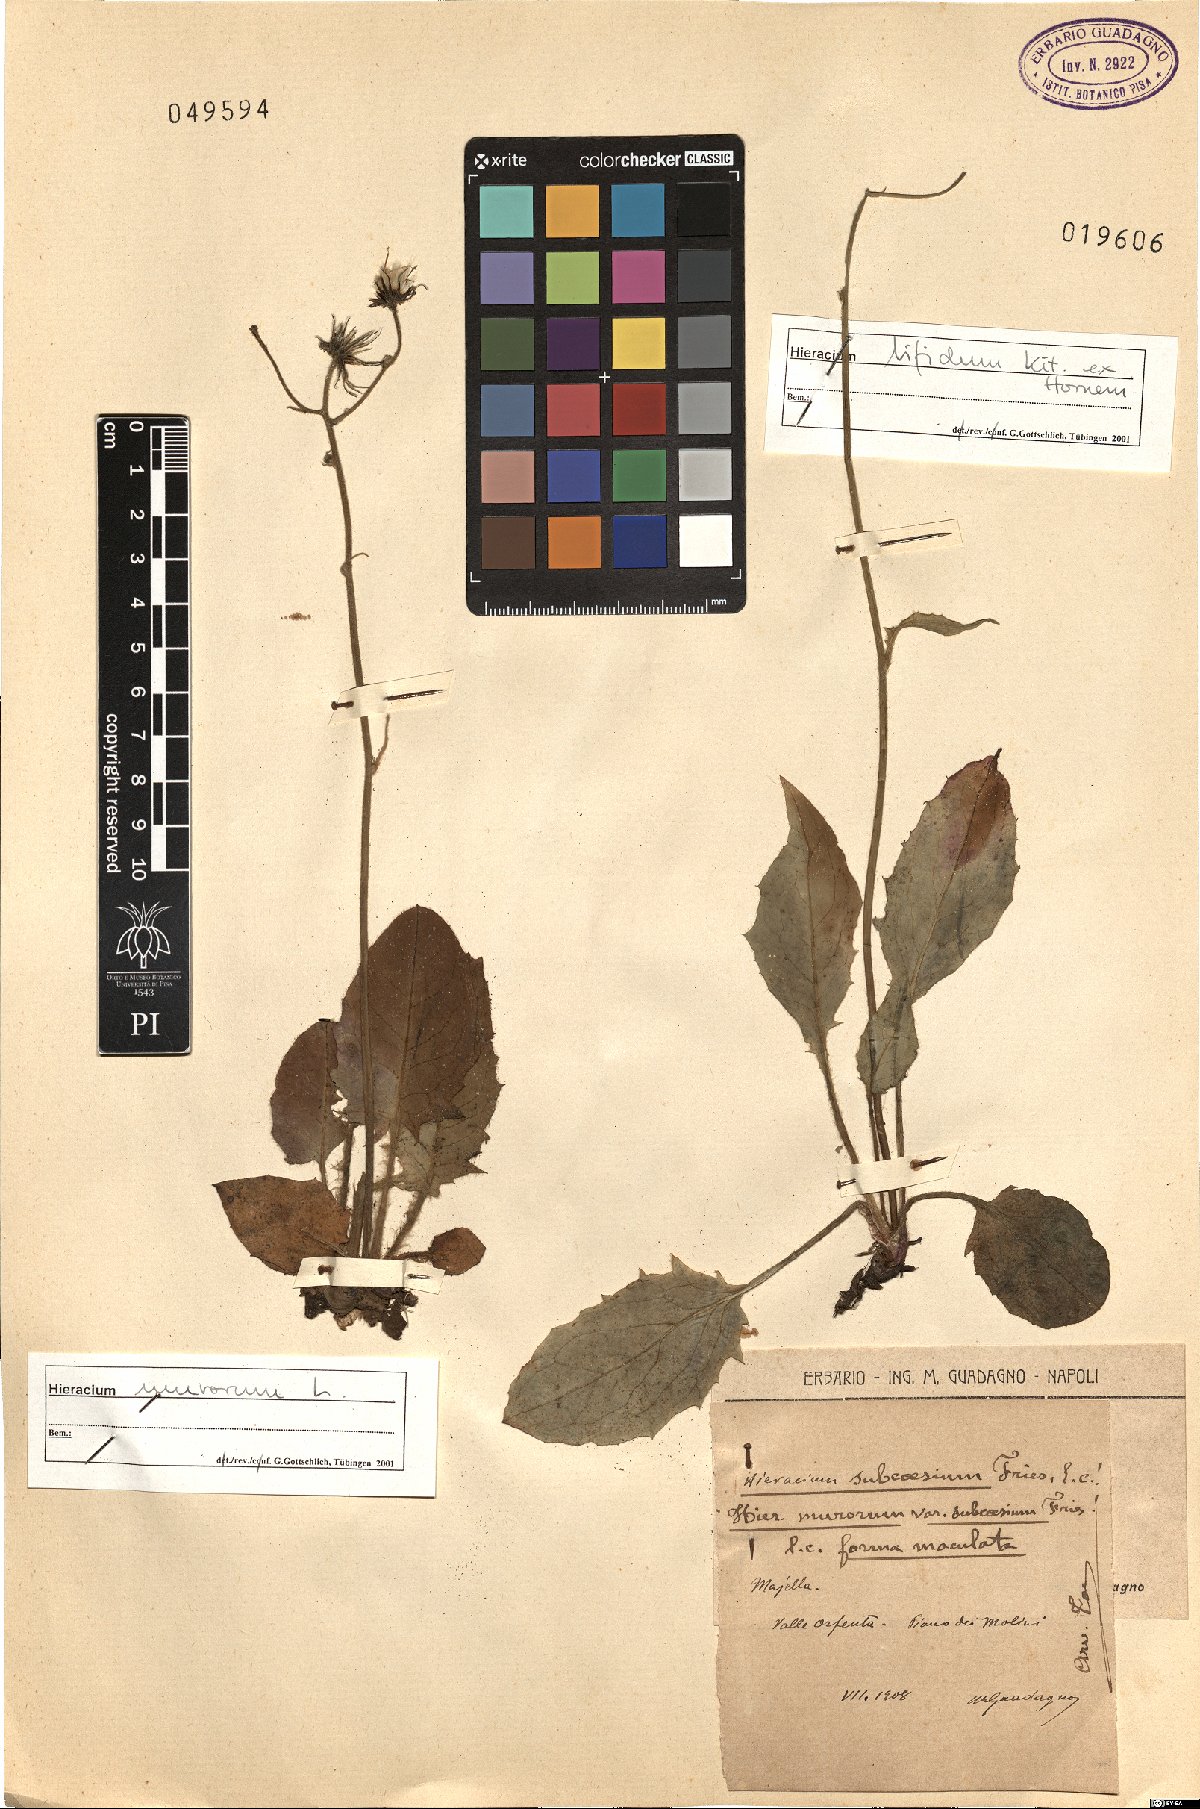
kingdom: Plantae
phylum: Tracheophyta
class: Magnoliopsida
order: Asterales
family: Asteraceae
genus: Hieracium
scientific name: Hieracium murorum
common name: Wall hawkweed
